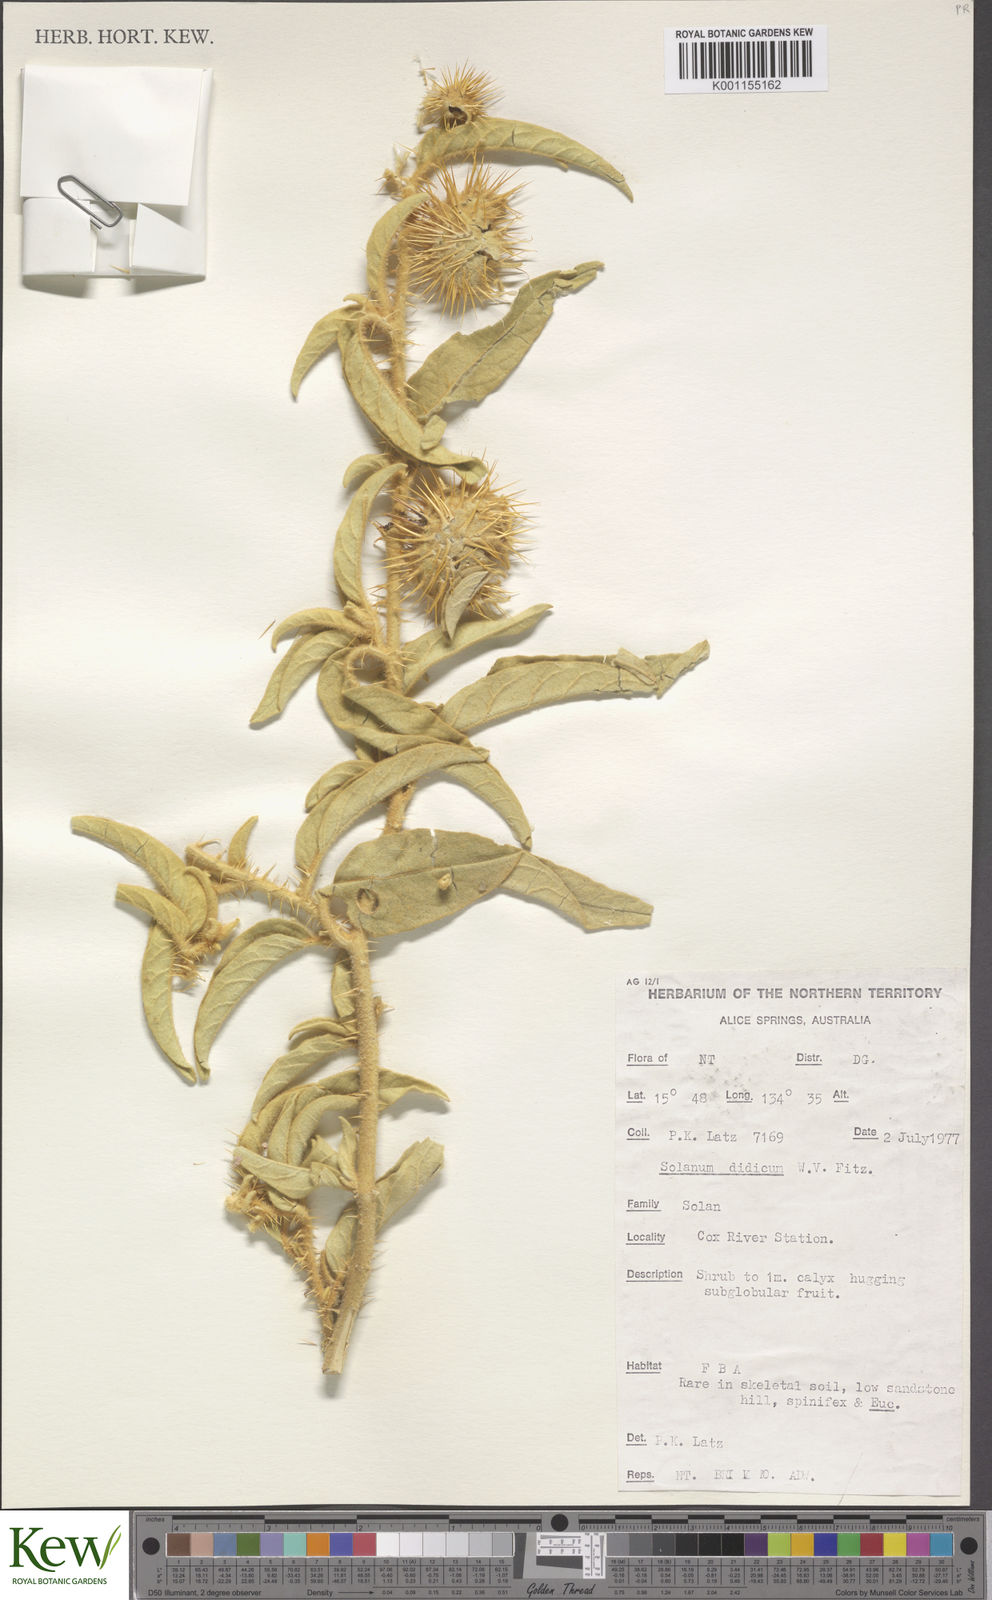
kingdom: Plantae
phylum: Tracheophyta
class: Magnoliopsida
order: Solanales
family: Solanaceae
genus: Solanum
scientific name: Solanum dioicum
